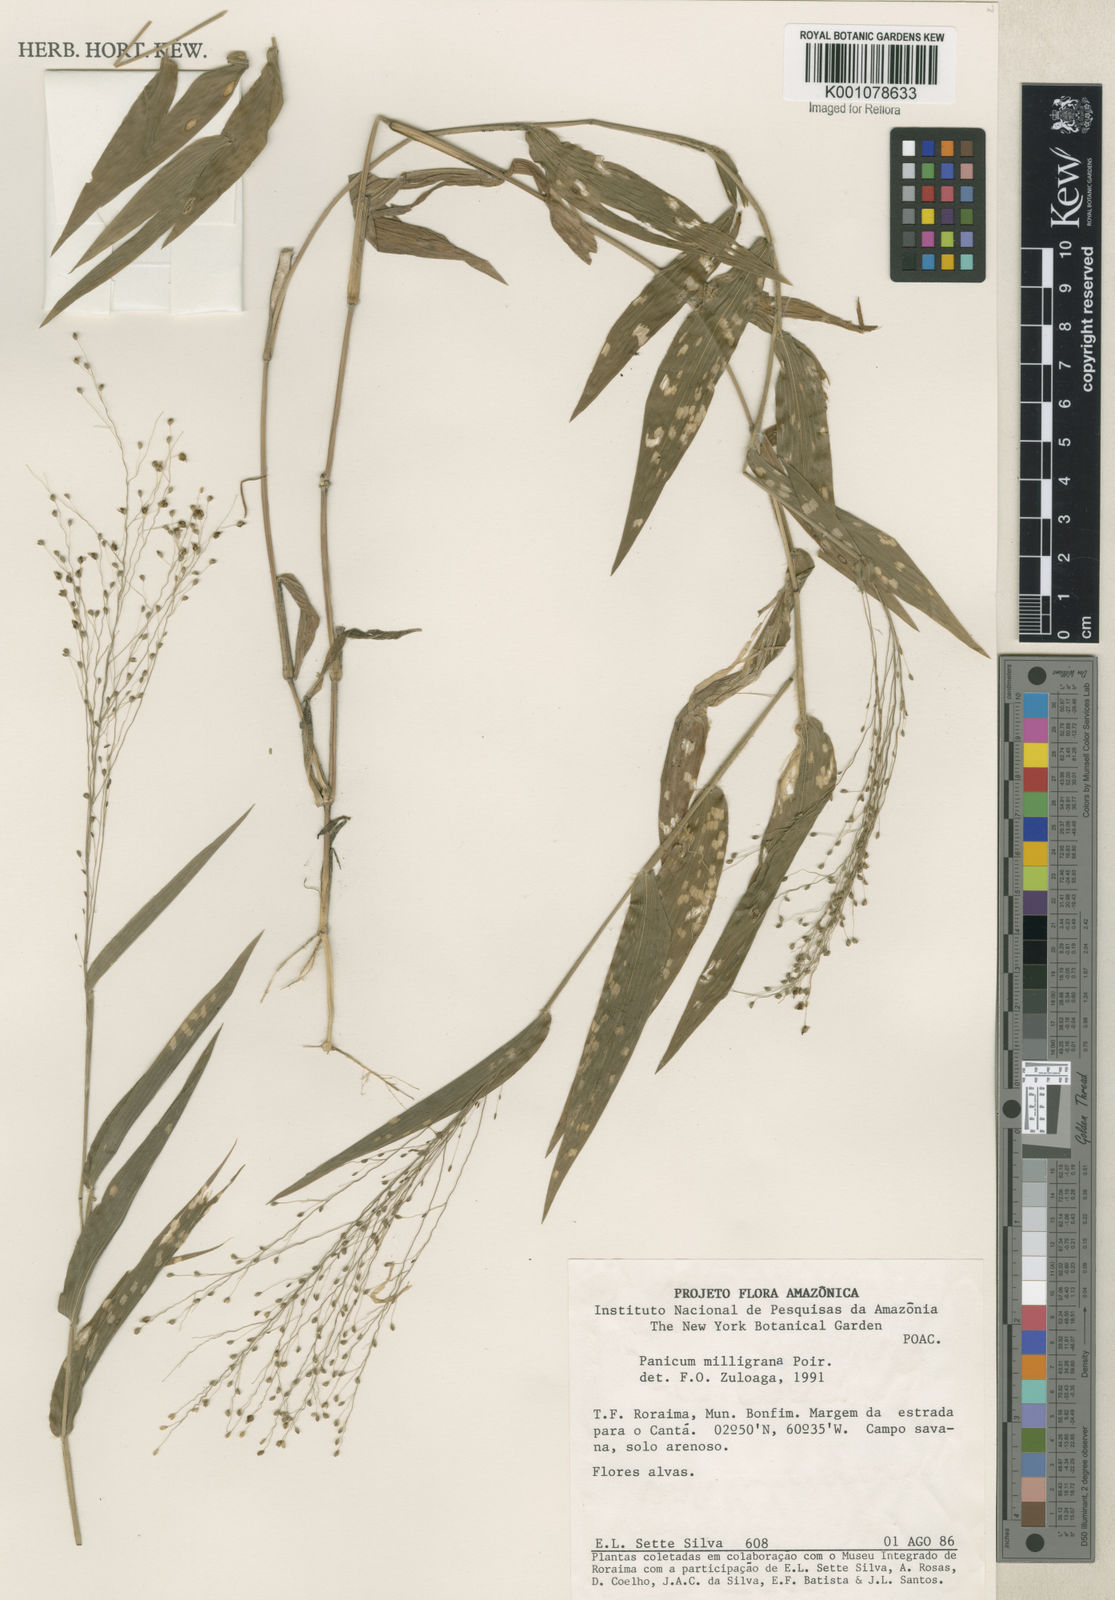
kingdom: Plantae
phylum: Tracheophyta
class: Liliopsida
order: Poales
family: Poaceae
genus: Panicum
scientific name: Panicum millegrana
